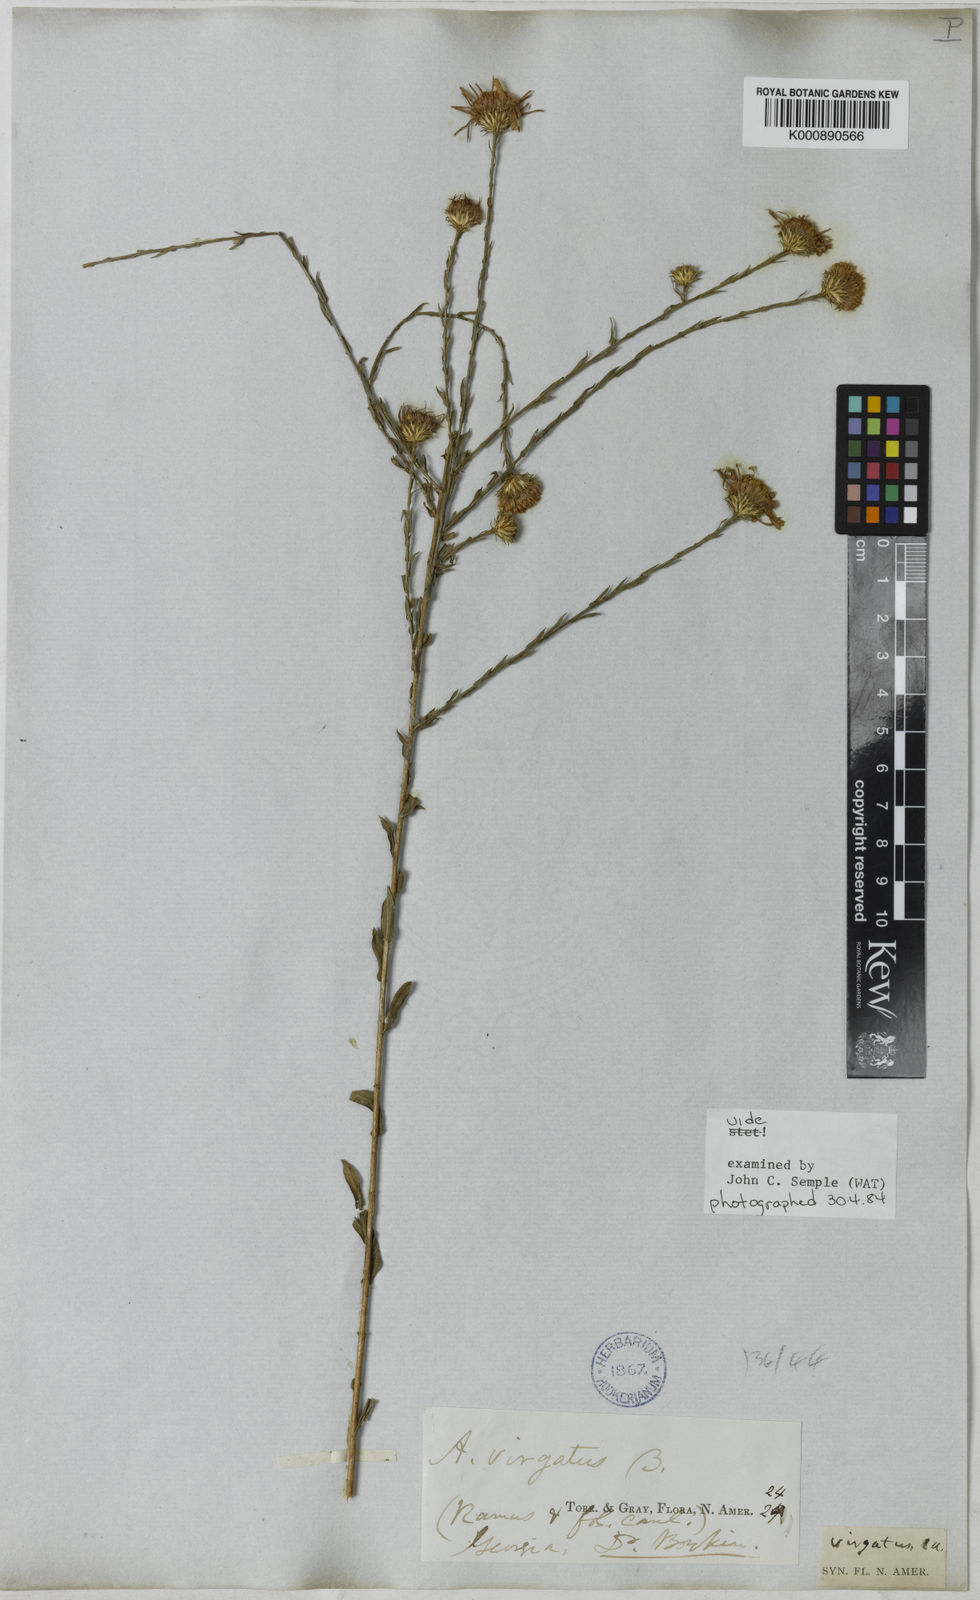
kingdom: Plantae
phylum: Tracheophyta
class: Magnoliopsida
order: Asterales
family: Asteraceae
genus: Symphyotrichum
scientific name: Symphyotrichum patens
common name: Late purple aster
